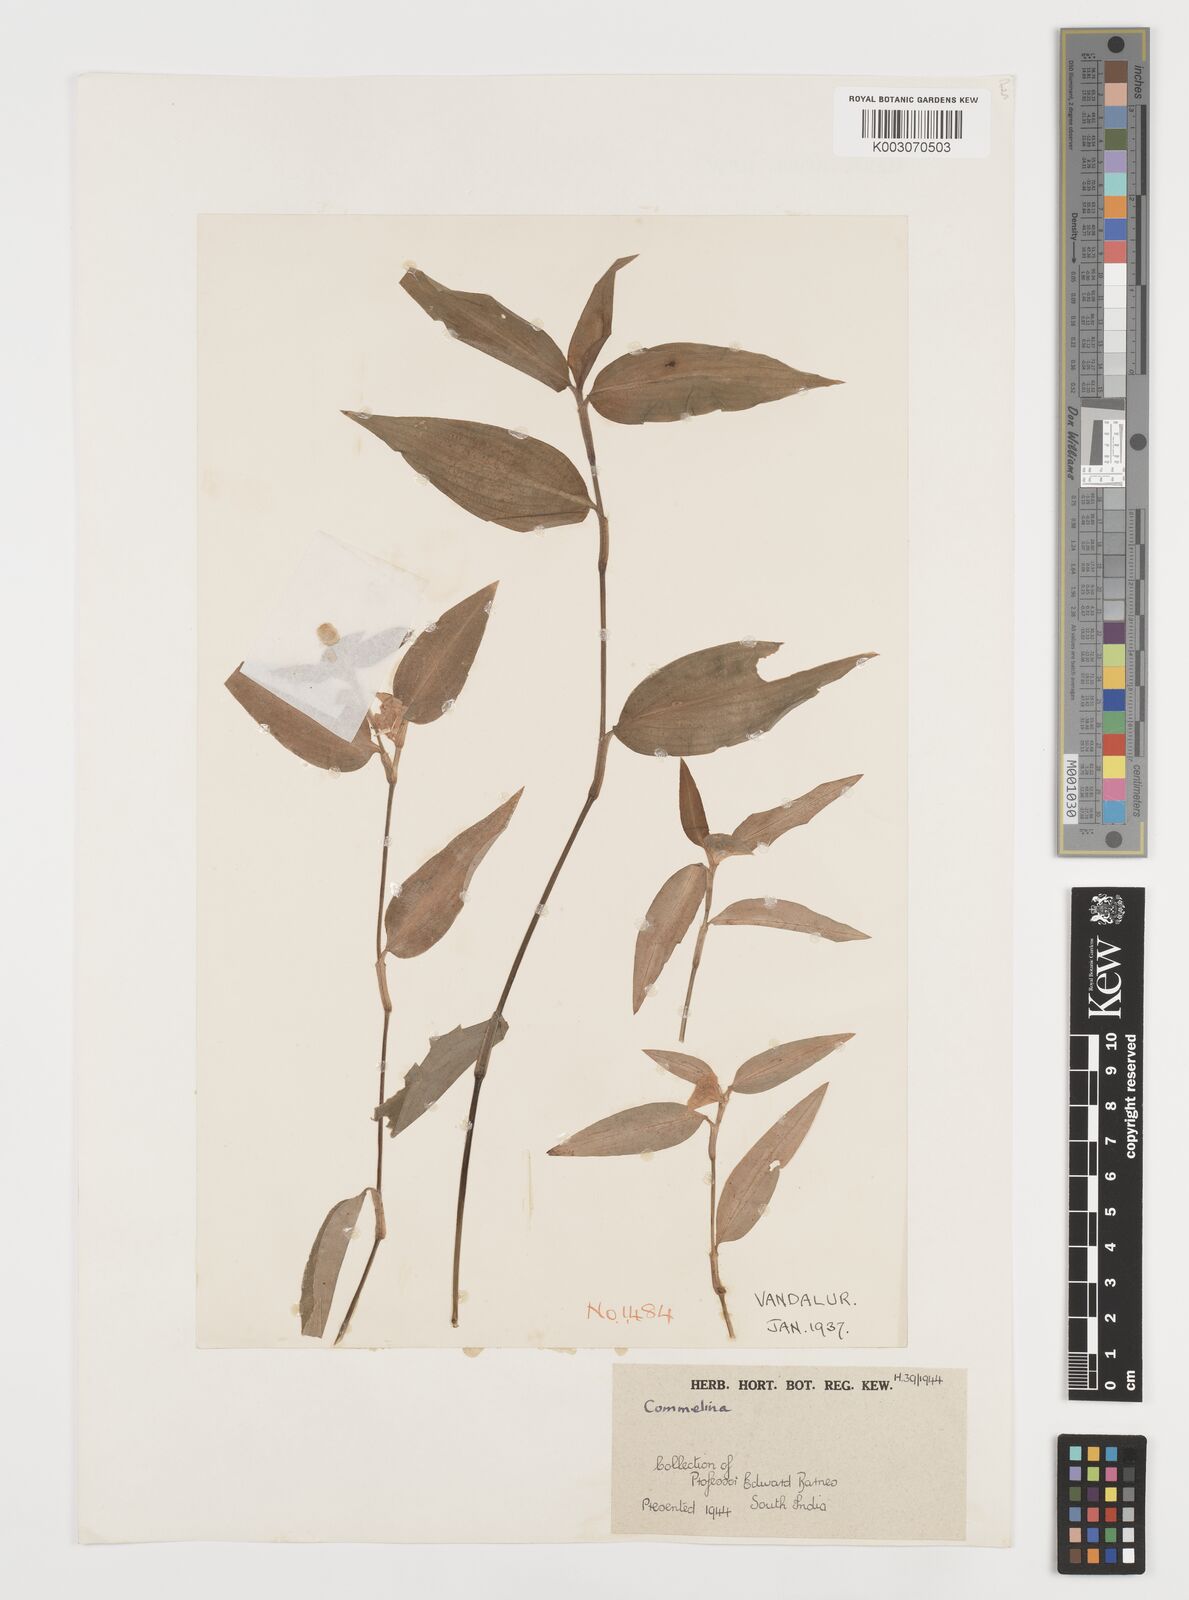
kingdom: Plantae
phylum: Tracheophyta
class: Liliopsida
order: Commelinales
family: Commelinaceae
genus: Commelina
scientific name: Commelina
